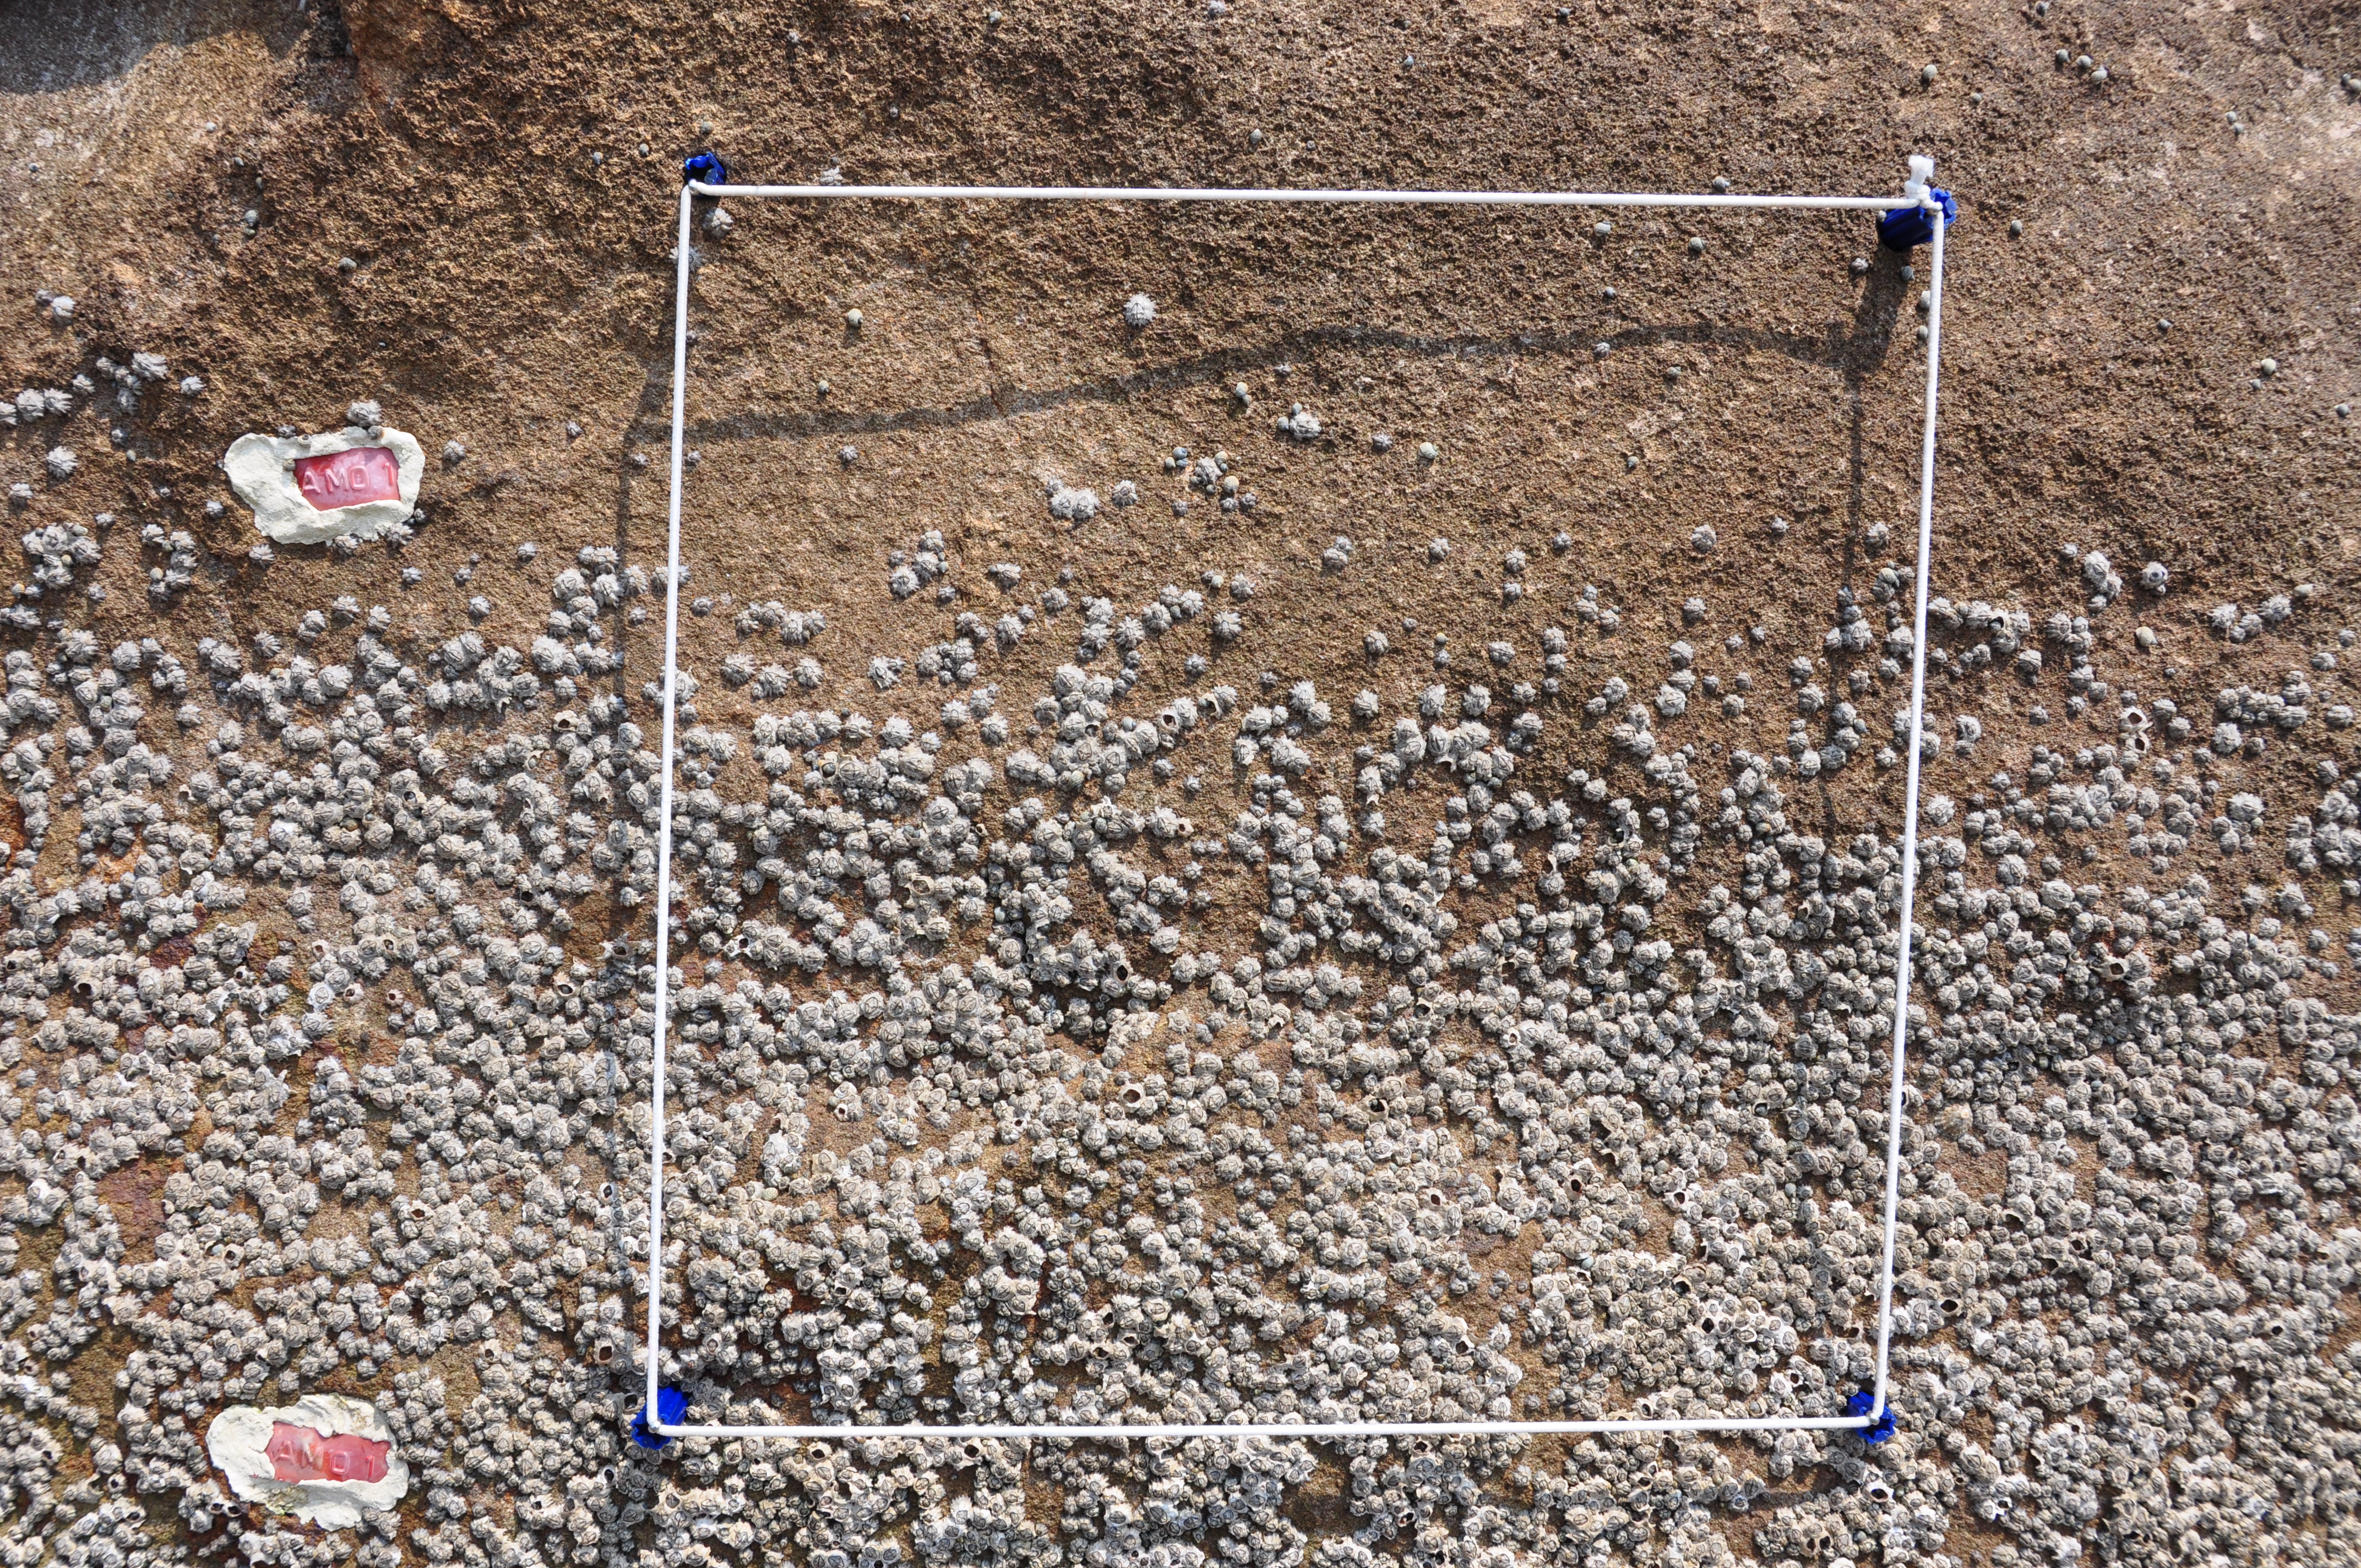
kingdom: Animalia
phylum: Arthropoda
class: Maxillopoda
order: Sessilia
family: Chthamalidae
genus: Chthamalus
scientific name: Chthamalus challengeri
